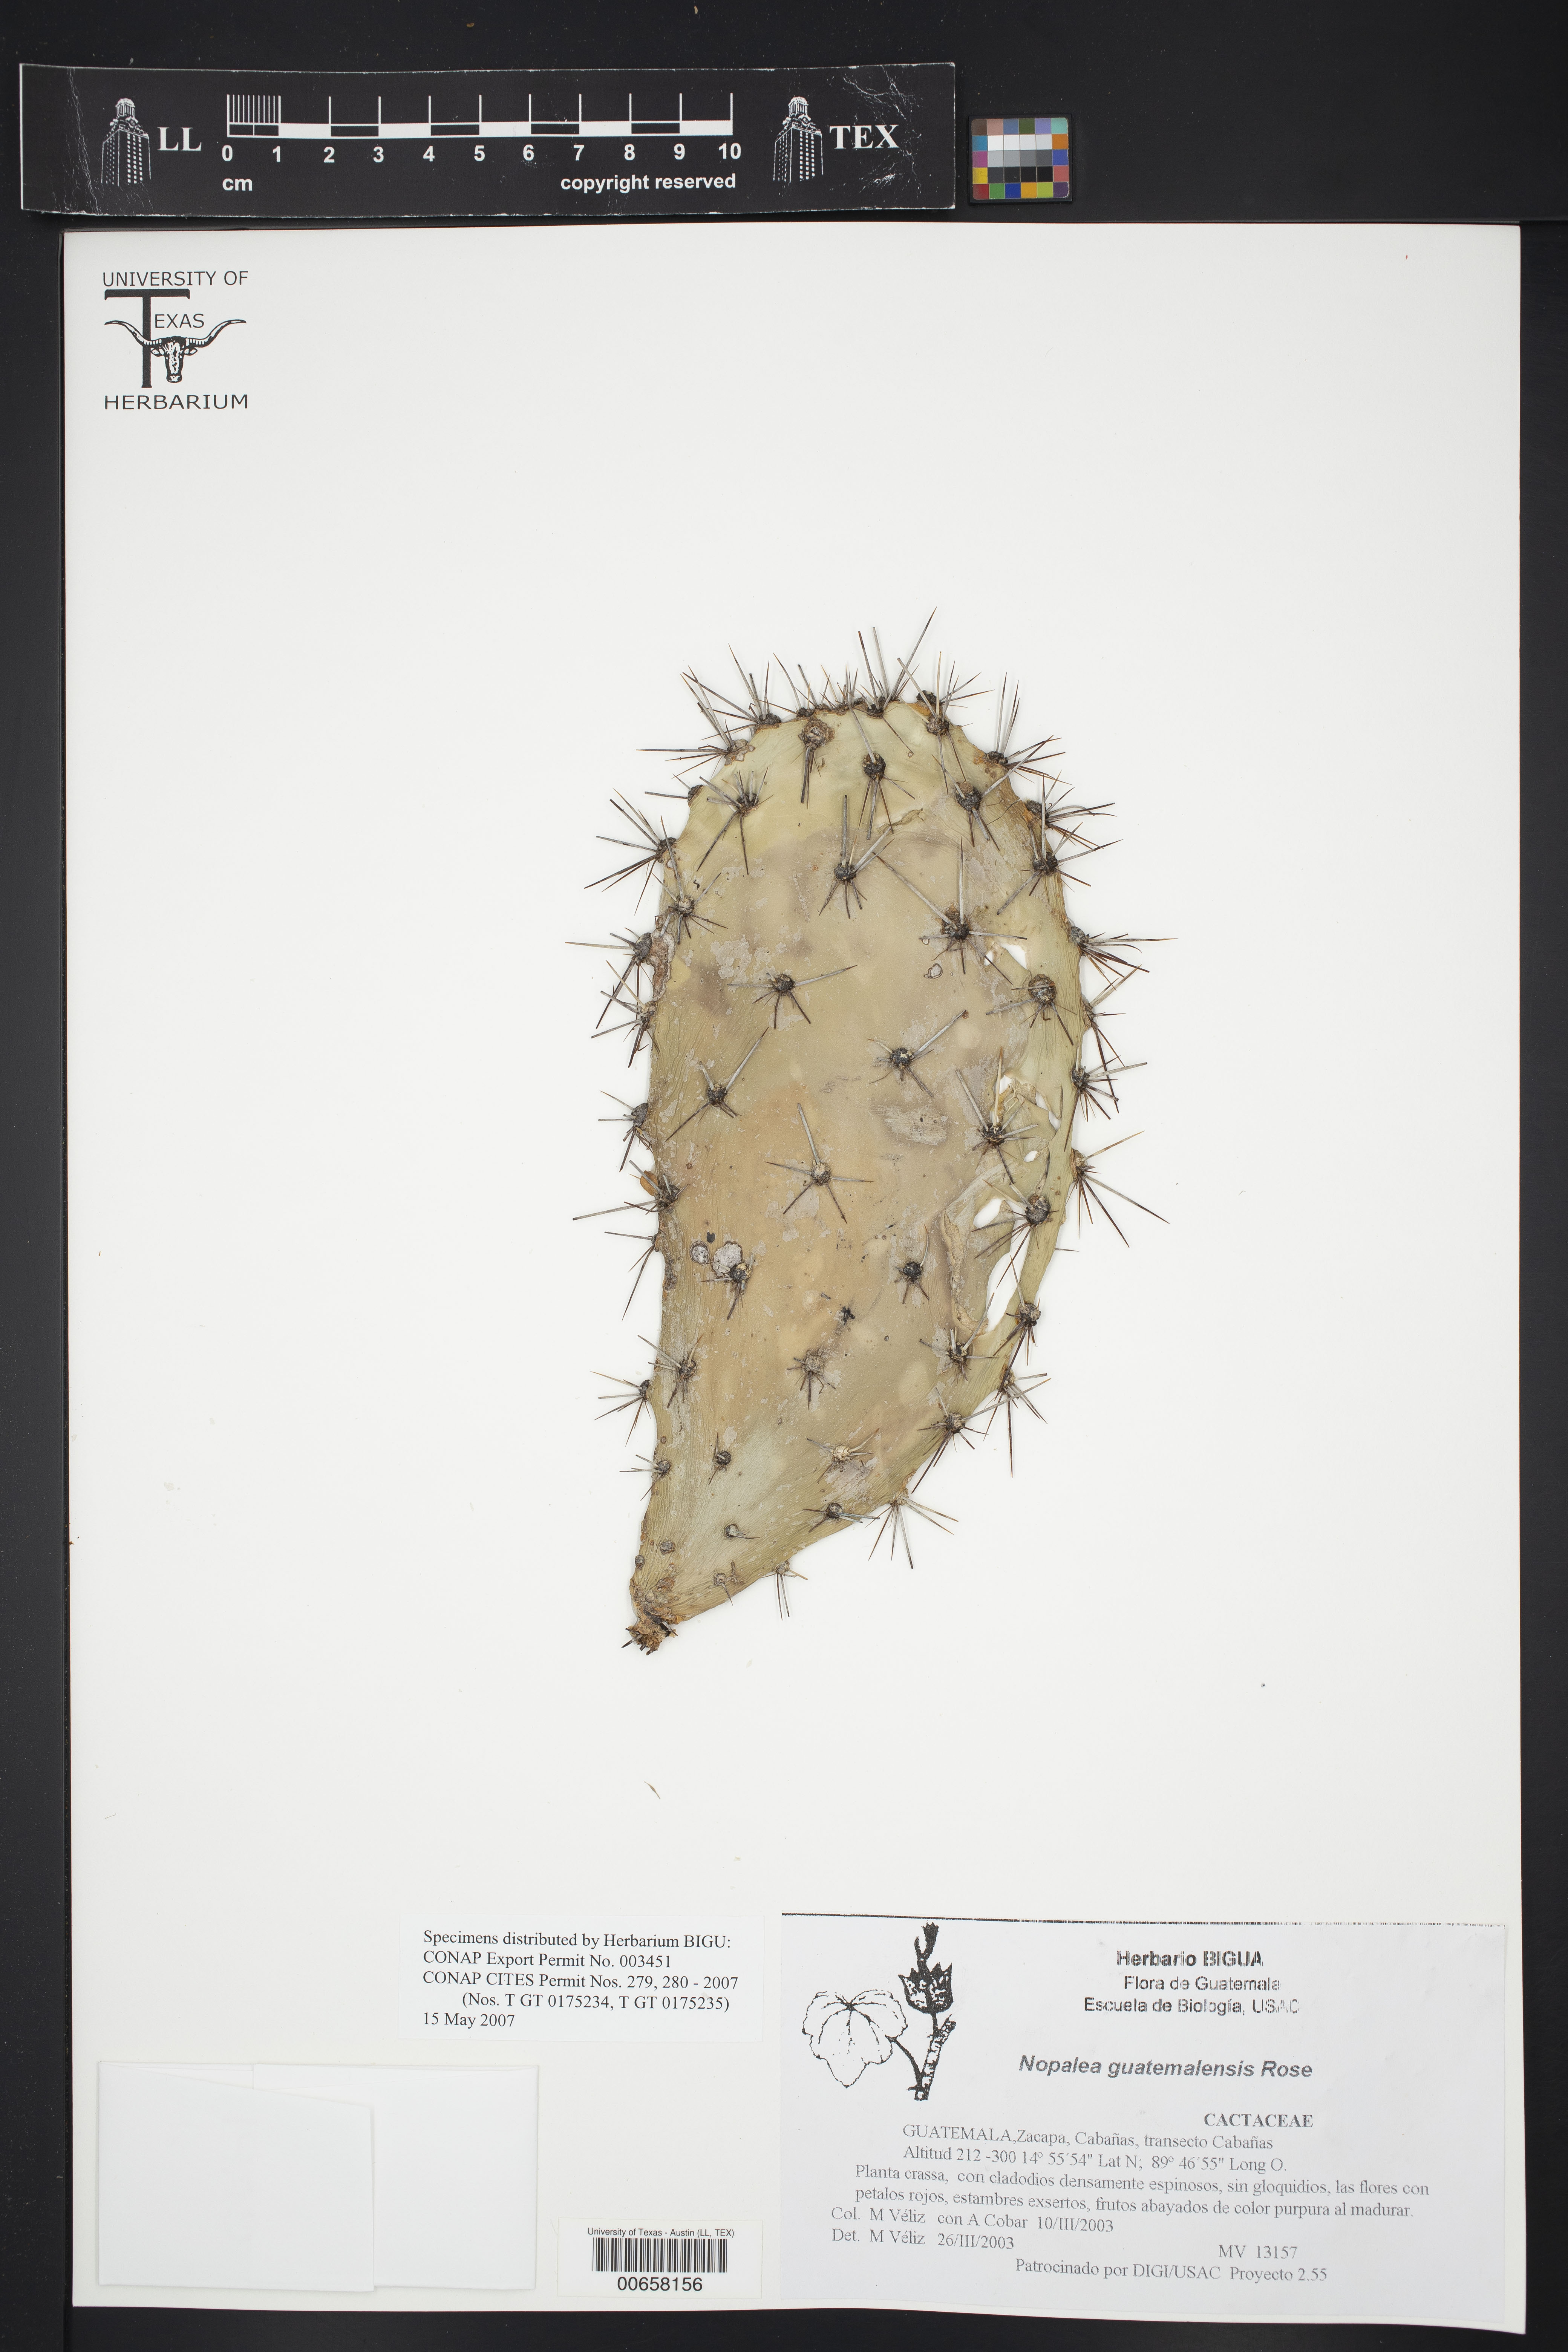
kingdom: Plantae
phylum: Tracheophyta
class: Magnoliopsida
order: Caryophyllales
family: Cactaceae
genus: Nopalea
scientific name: Nopalea guatemalensis
